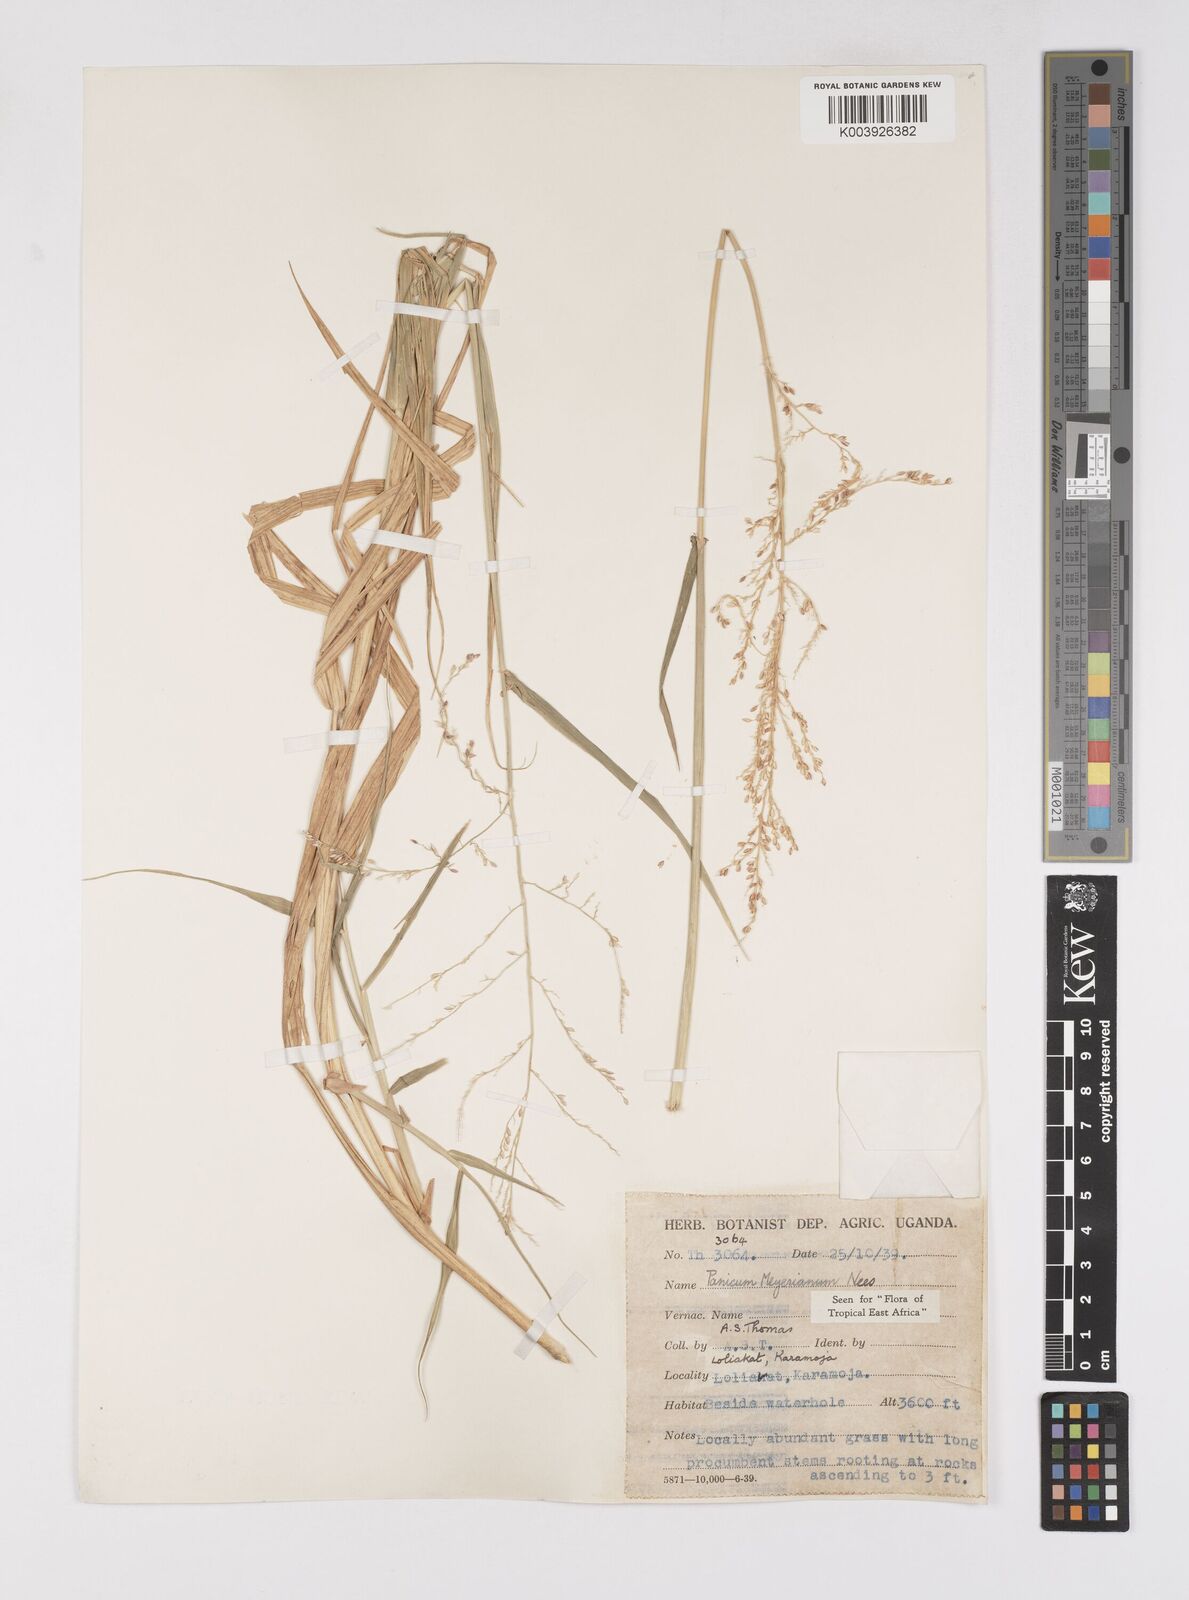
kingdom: Plantae
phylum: Tracheophyta
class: Liliopsida
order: Poales
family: Poaceae
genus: Eriochloa
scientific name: Eriochloa meyeriana
